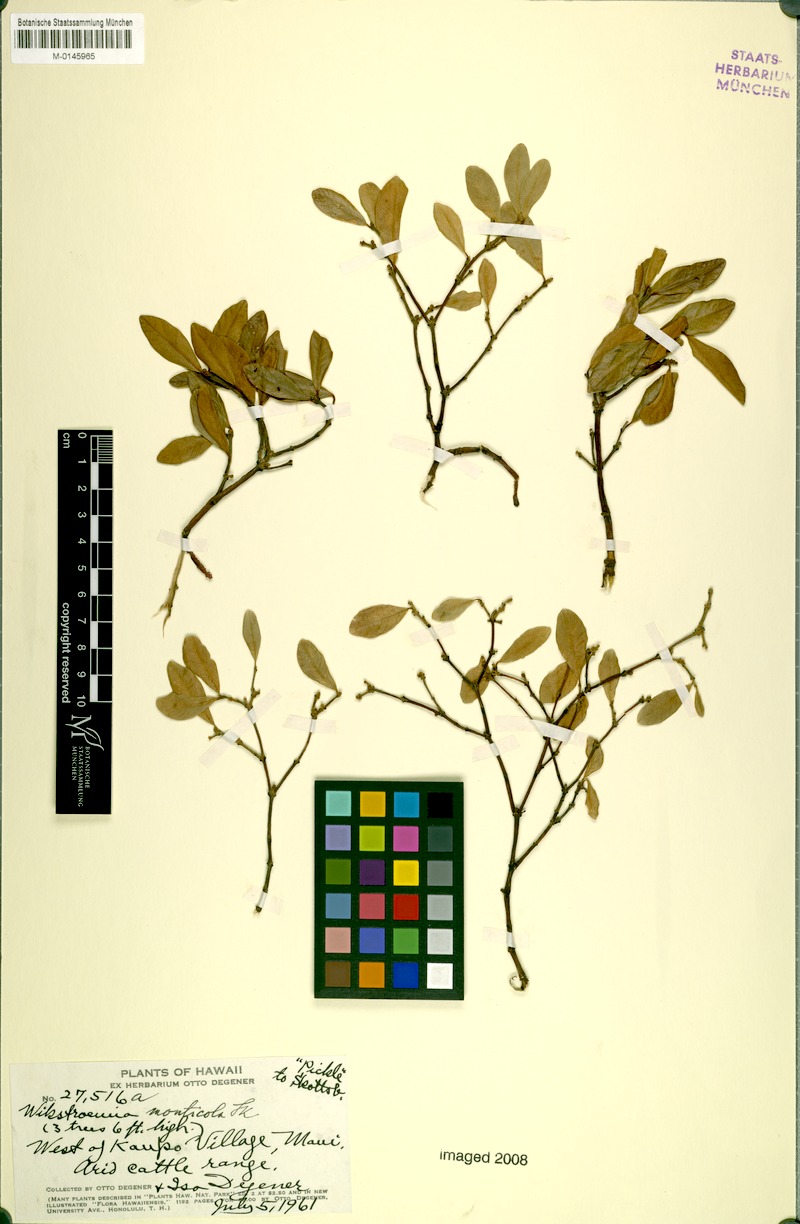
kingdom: Plantae
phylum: Tracheophyta
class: Magnoliopsida
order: Malvales
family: Thymelaeaceae
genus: Wikstroemia
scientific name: Wikstroemia monticola
